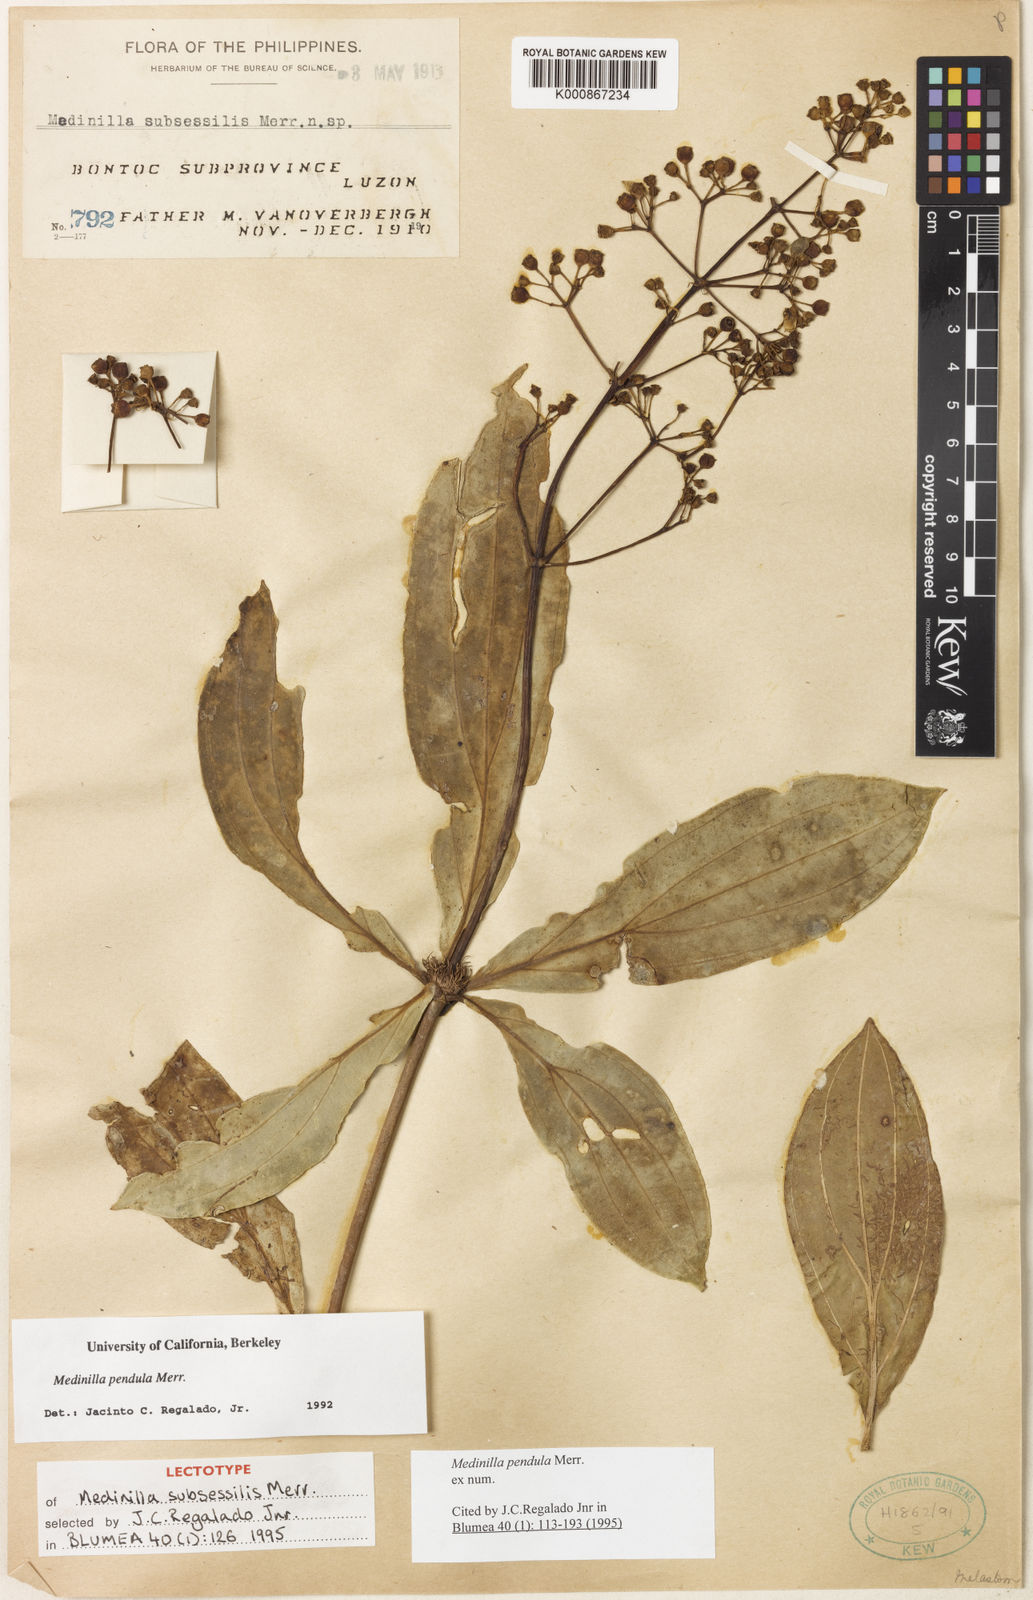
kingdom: Plantae
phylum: Tracheophyta
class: Magnoliopsida
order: Myrtales
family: Melastomataceae
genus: Medinilla
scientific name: Medinilla pendula
